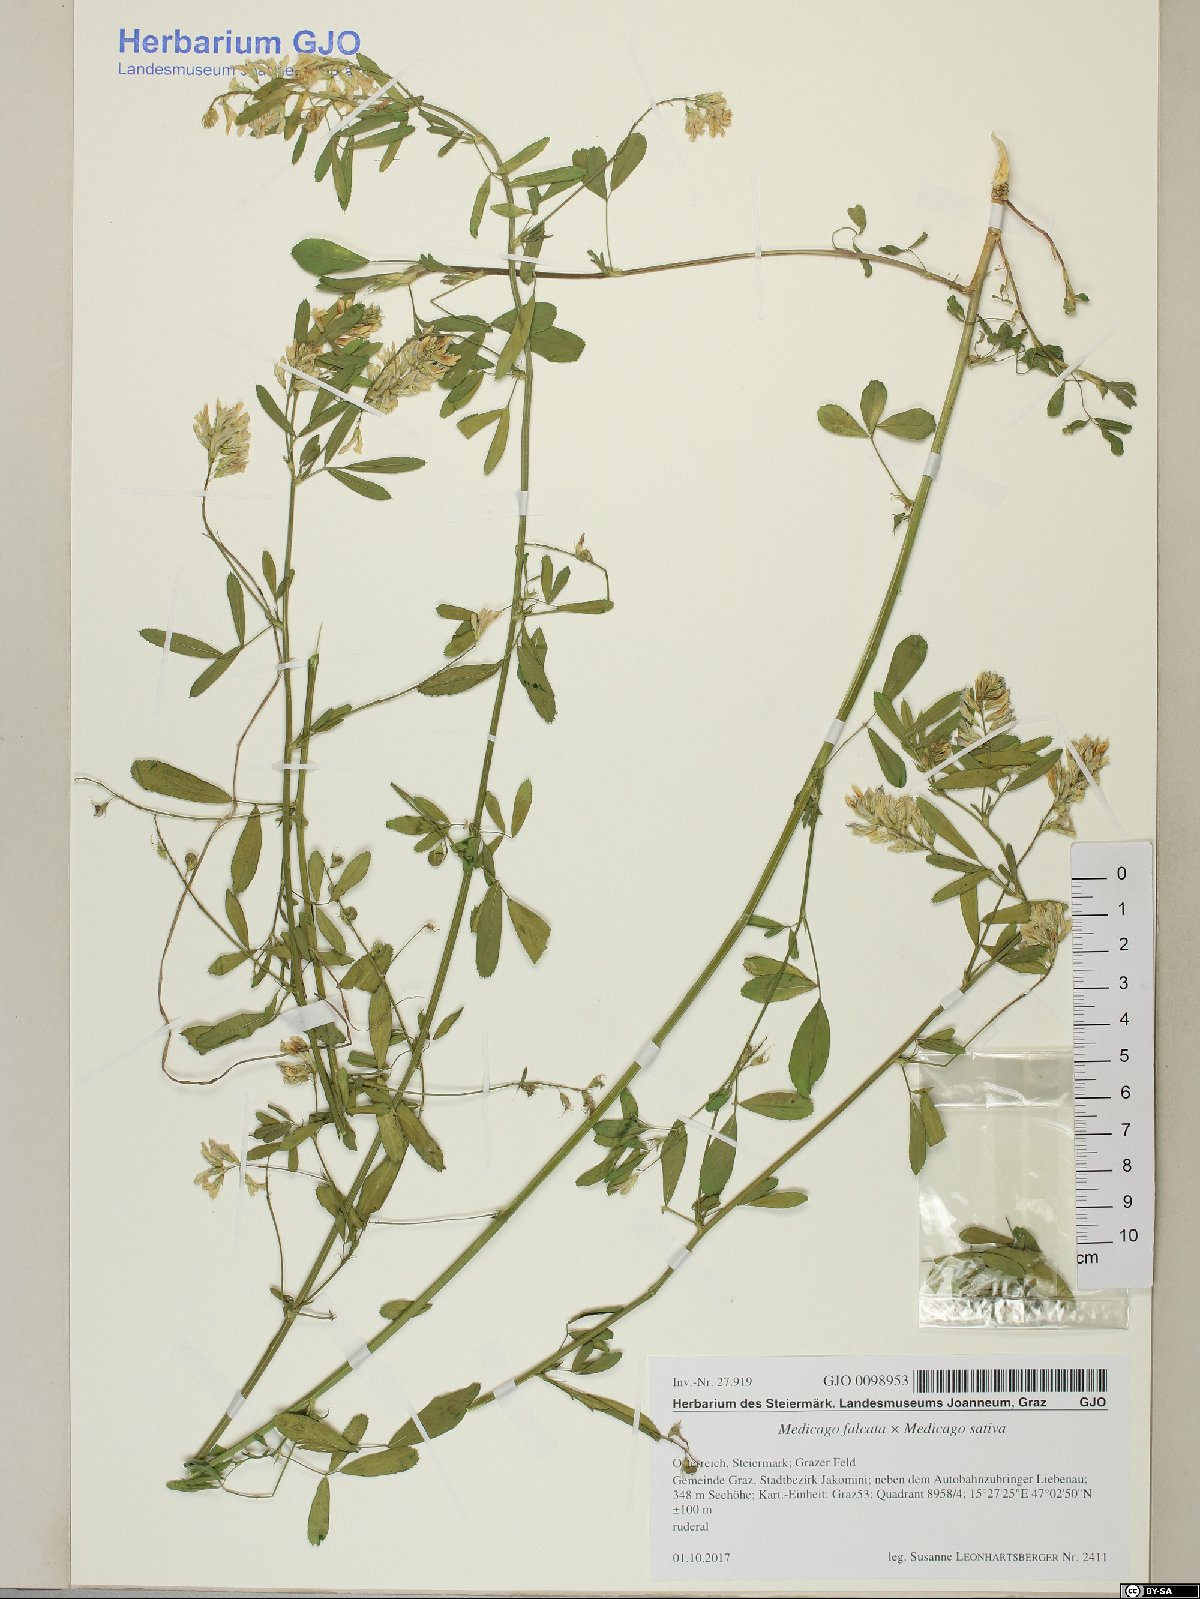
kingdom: Plantae
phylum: Tracheophyta
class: Magnoliopsida
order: Fabales
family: Fabaceae
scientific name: Fabaceae
